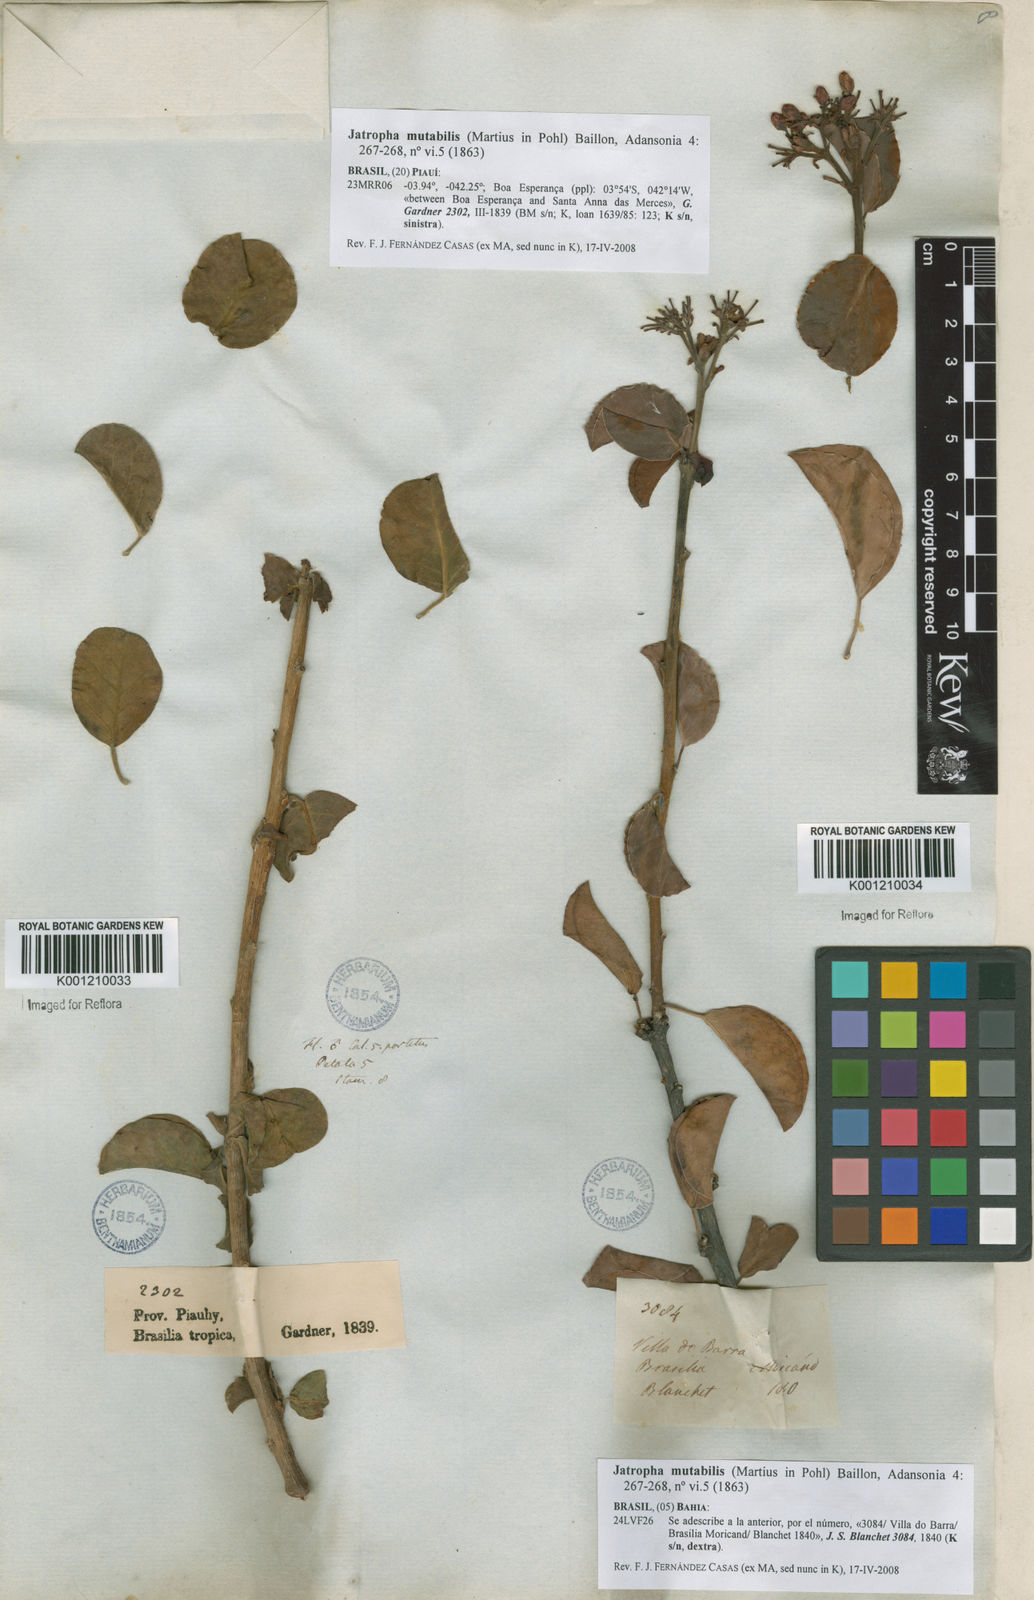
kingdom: Plantae
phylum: Tracheophyta
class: Magnoliopsida
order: Malpighiales
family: Euphorbiaceae
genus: Jatropha
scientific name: Jatropha mutabilis
